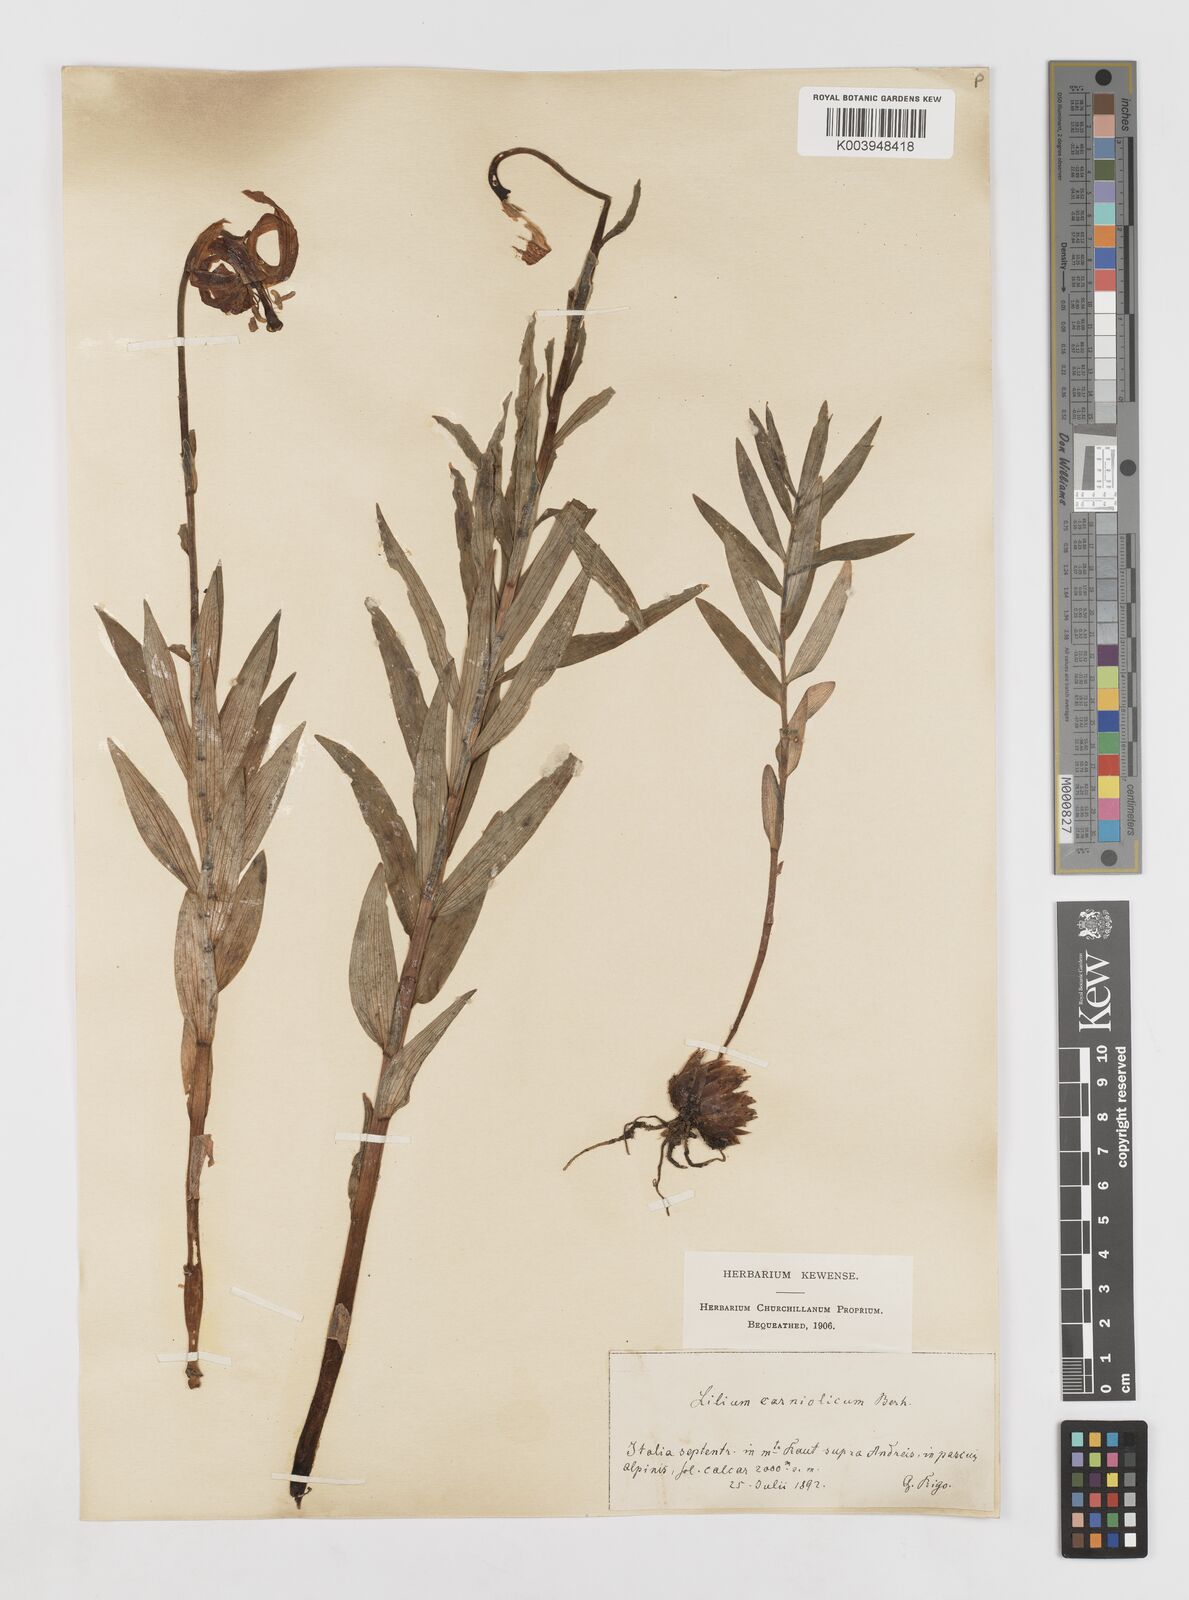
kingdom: Plantae
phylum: Tracheophyta
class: Liliopsida
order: Liliales
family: Liliaceae
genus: Lilium
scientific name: Lilium carniolicum
